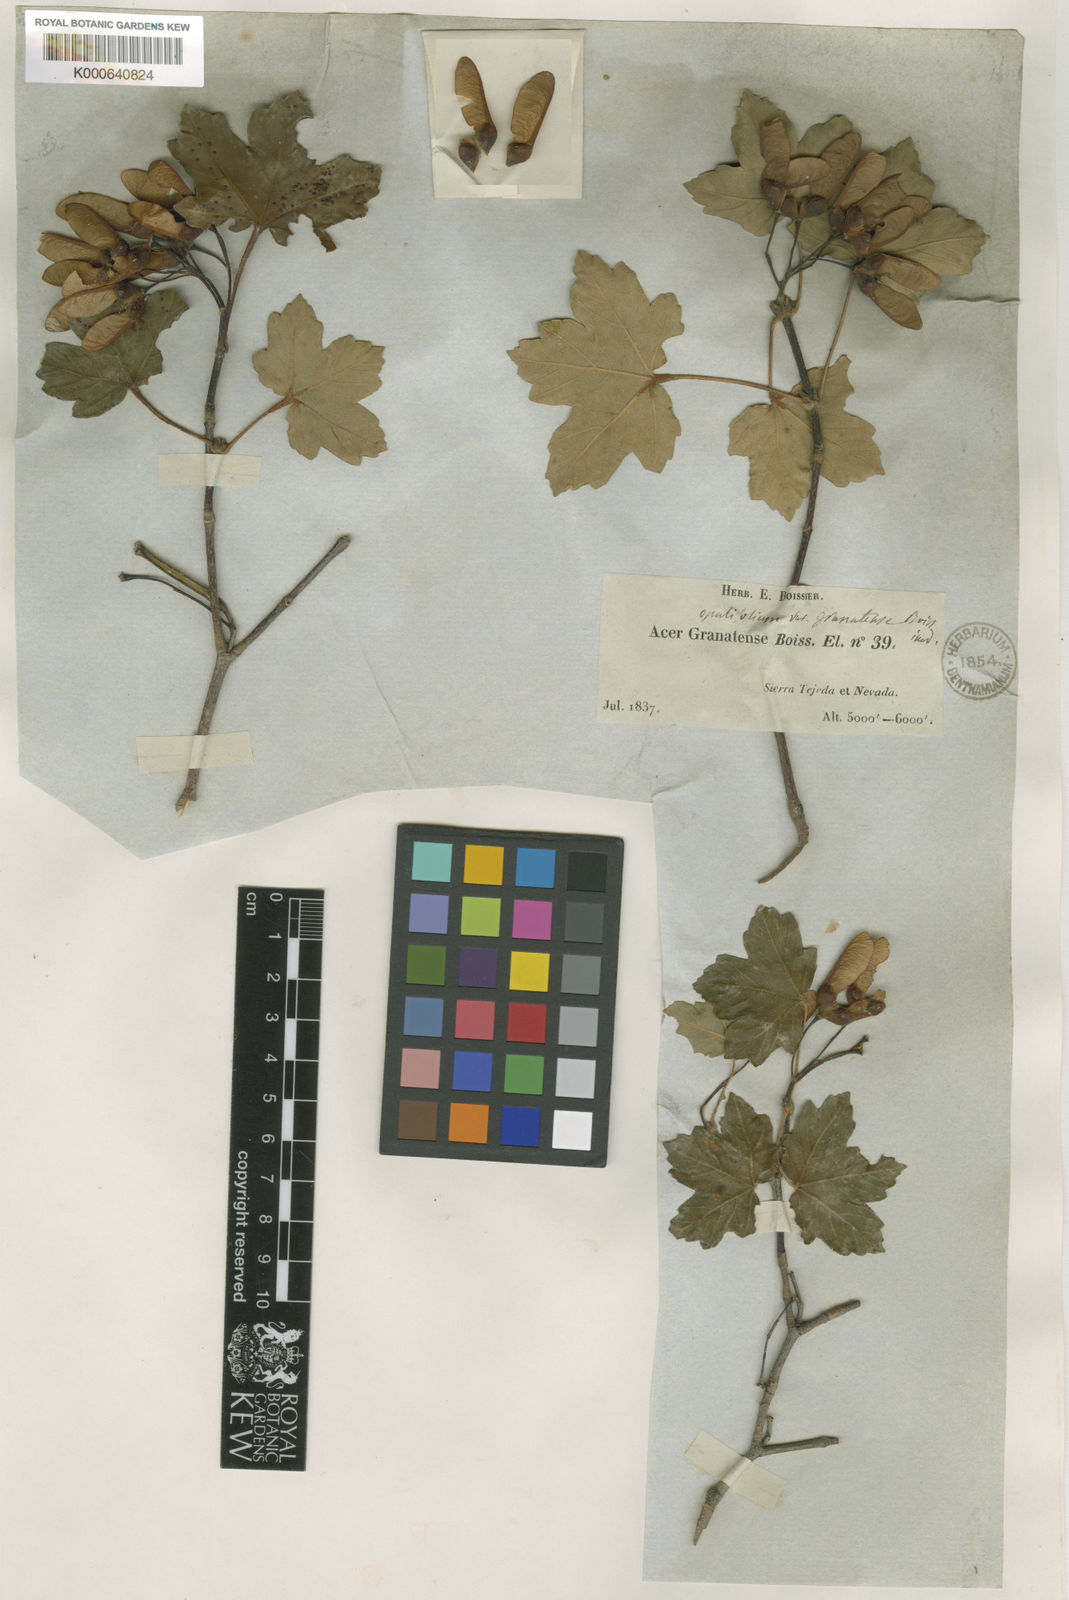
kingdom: Plantae
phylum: Tracheophyta
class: Magnoliopsida
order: Sapindales
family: Sapindaceae
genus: Acer
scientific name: Acer
